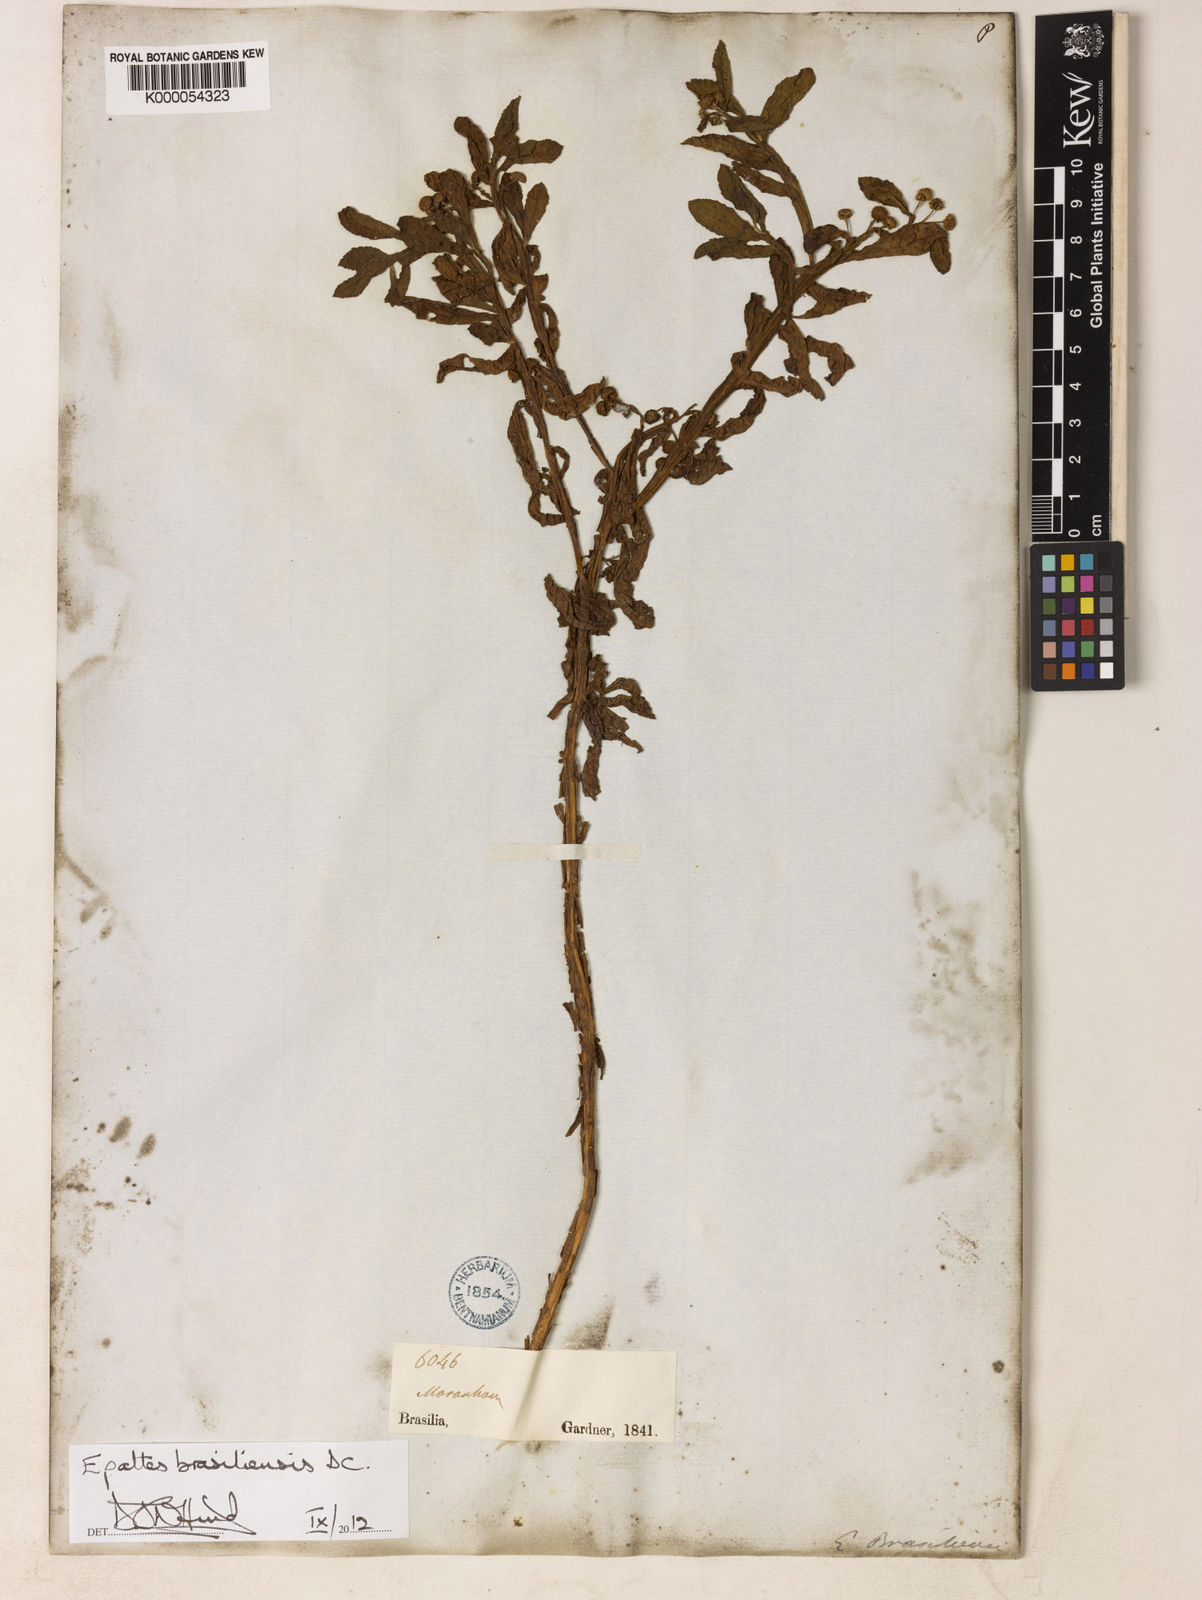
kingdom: Plantae
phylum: Tracheophyta
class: Magnoliopsida
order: Asterales
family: Asteraceae
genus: Epaltes
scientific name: Epaltes brasiliensis
